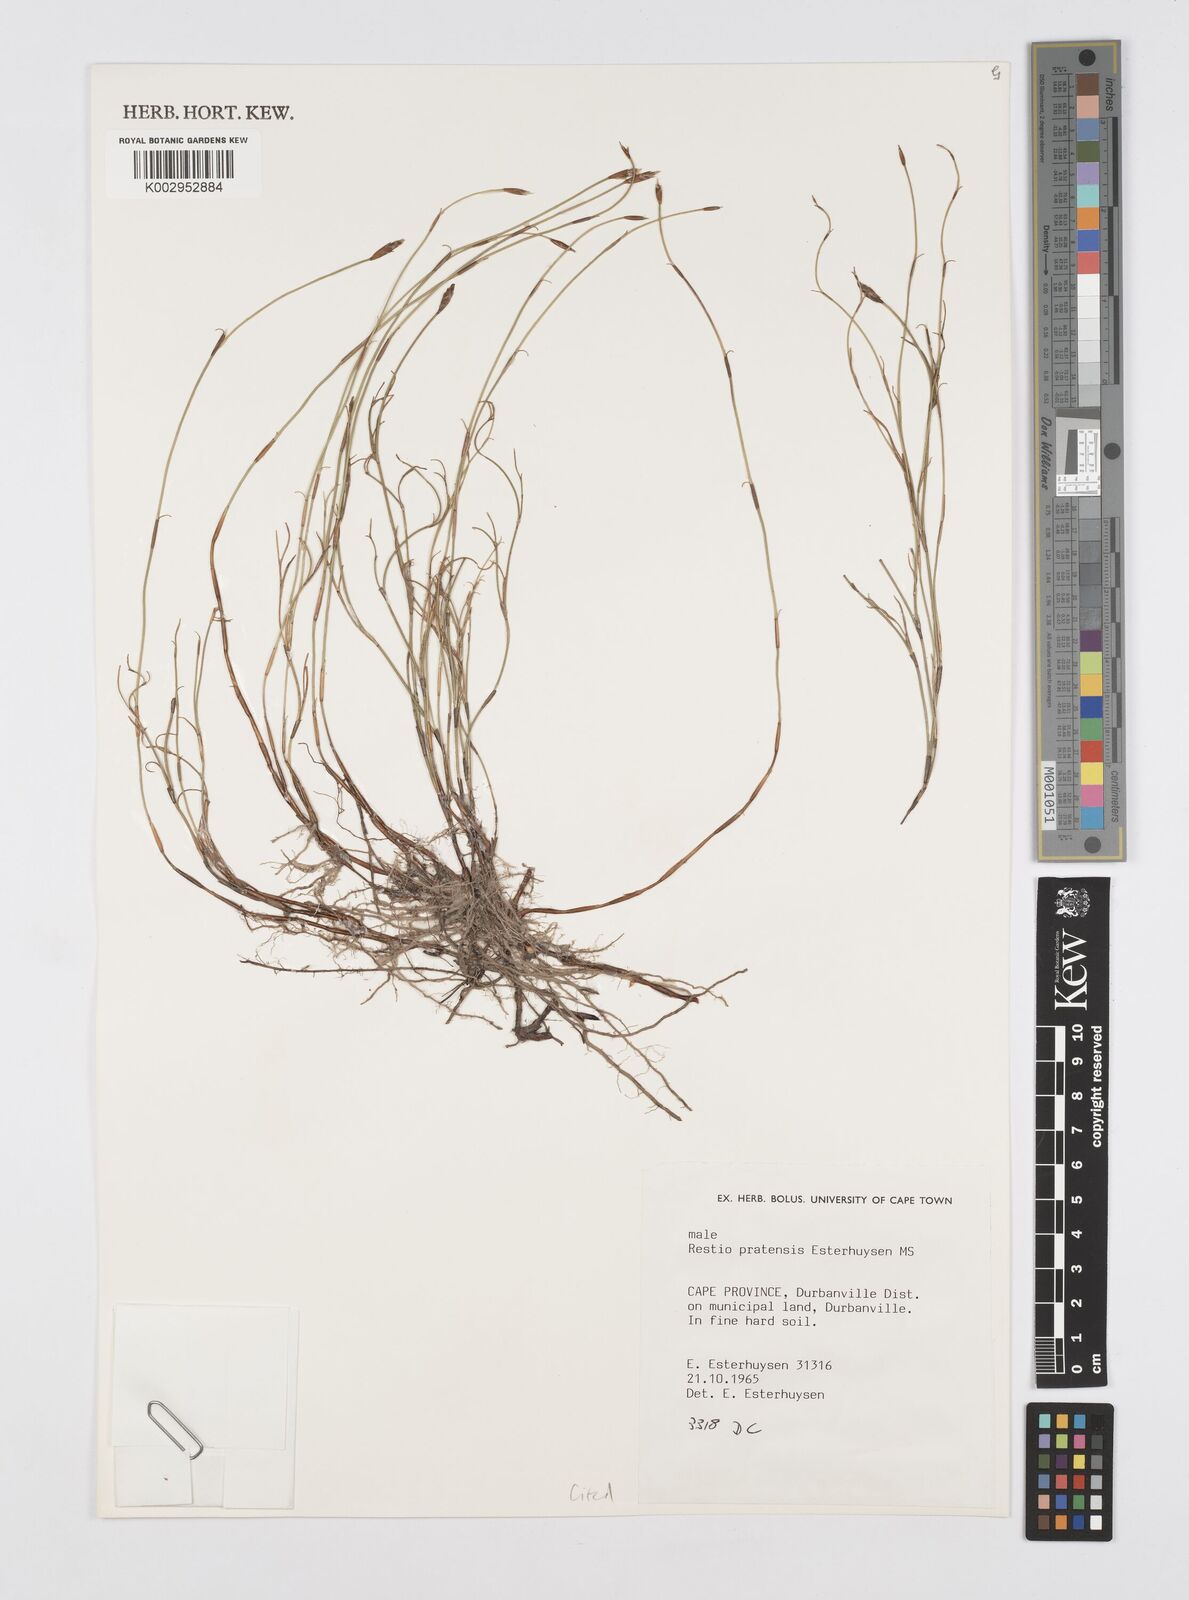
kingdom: Plantae
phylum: Tracheophyta
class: Liliopsida
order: Poales
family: Restionaceae
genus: Restio
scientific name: Restio pratensis
